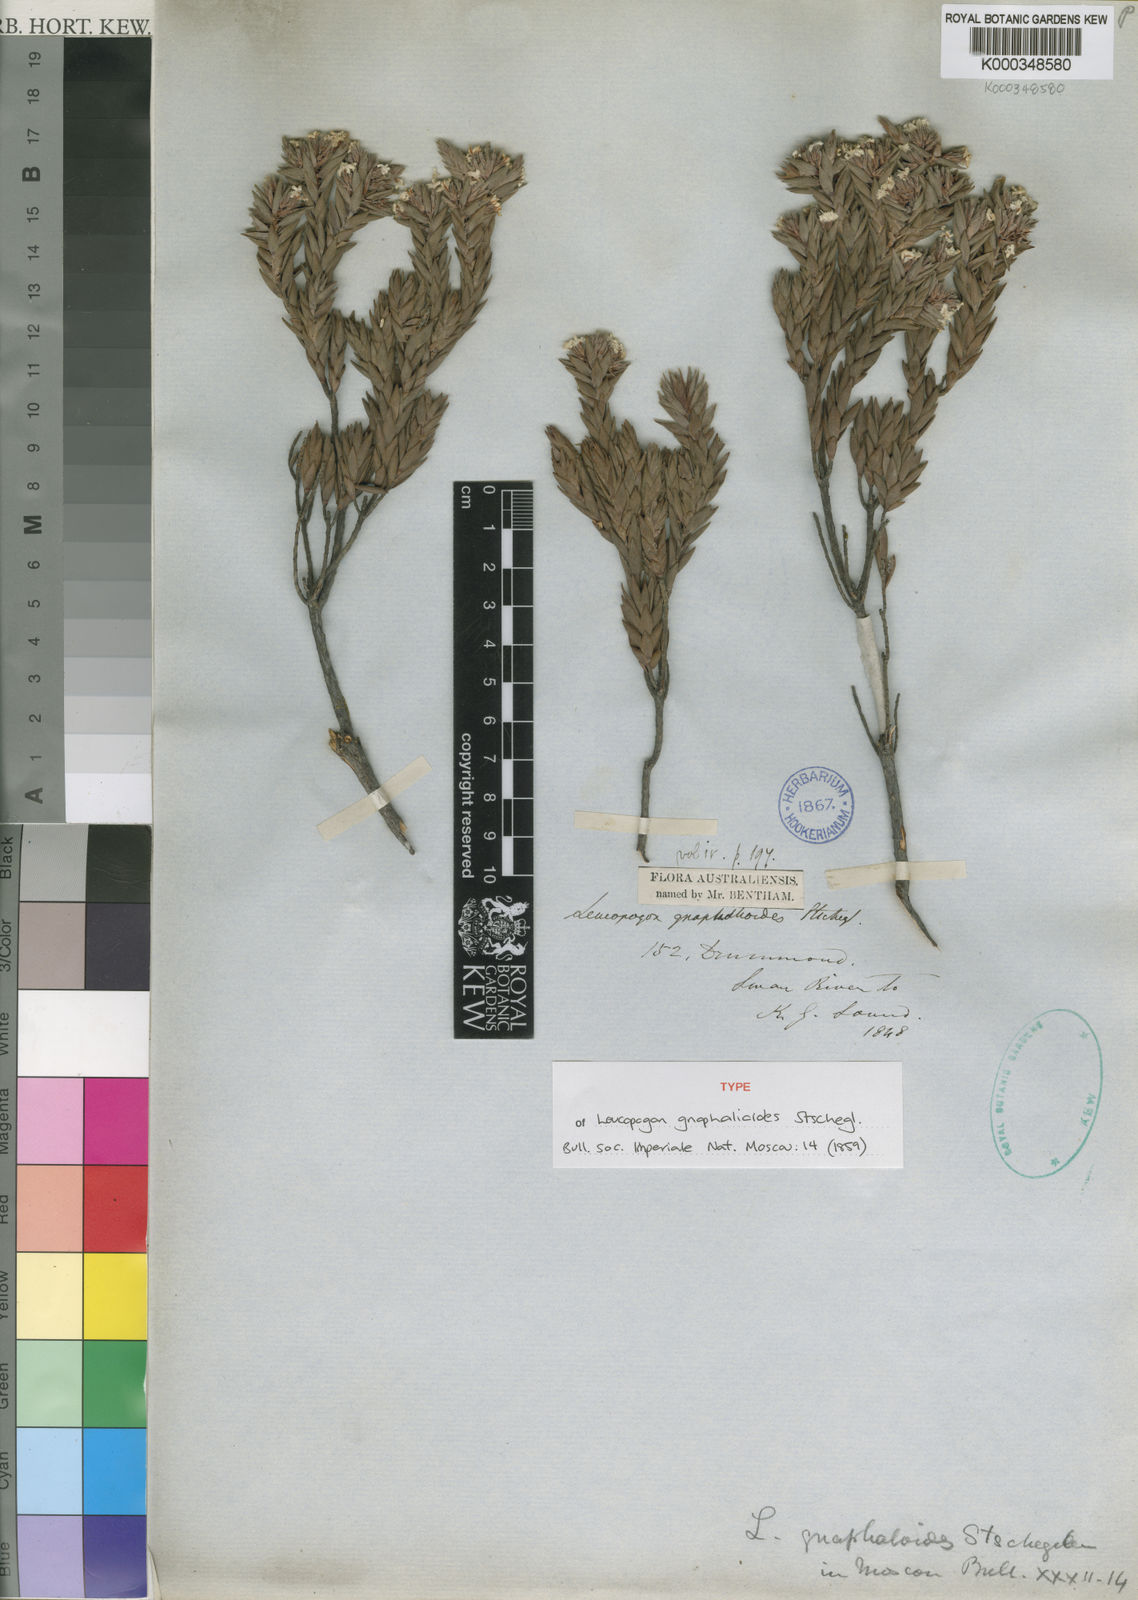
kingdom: Plantae
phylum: Tracheophyta
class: Magnoliopsida
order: Ericales
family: Ericaceae
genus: Leucopogon
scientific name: Leucopogon gnaphalioides
